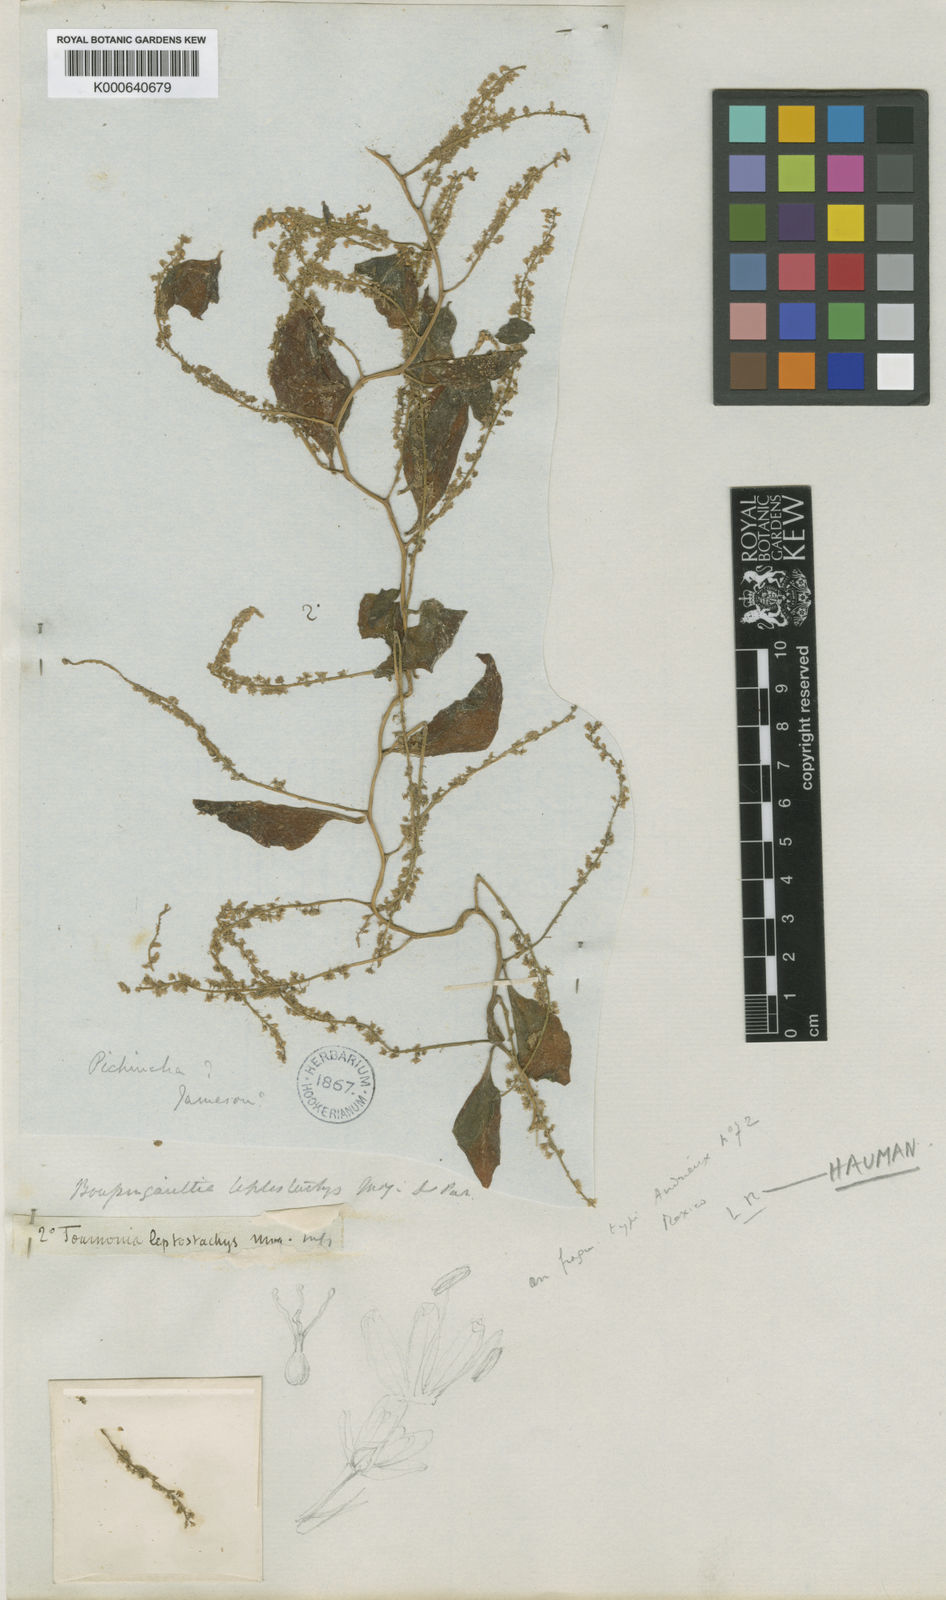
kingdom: Plantae
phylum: Tracheophyta
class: Magnoliopsida
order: Caryophyllales
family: Basellaceae
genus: Anredera
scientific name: Anredera vesicaria
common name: Sacasile
